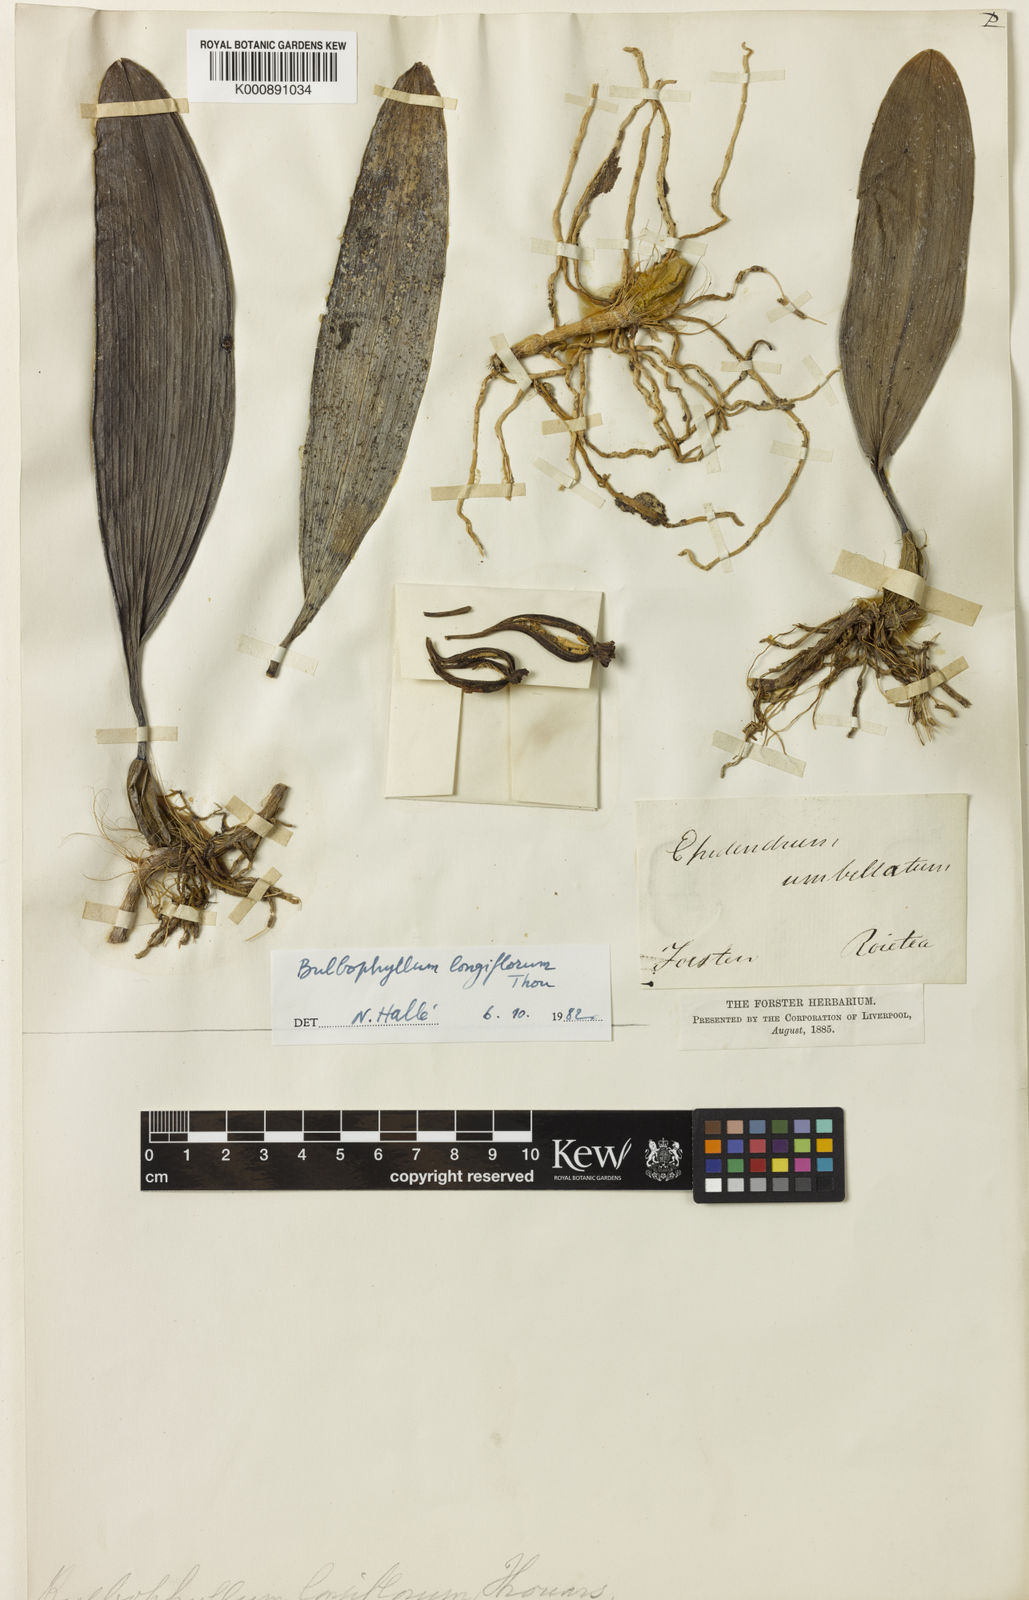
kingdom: Plantae
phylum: Tracheophyta
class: Liliopsida
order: Asparagales
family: Orchidaceae
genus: Bulbophyllum
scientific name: Bulbophyllum longiflorum
